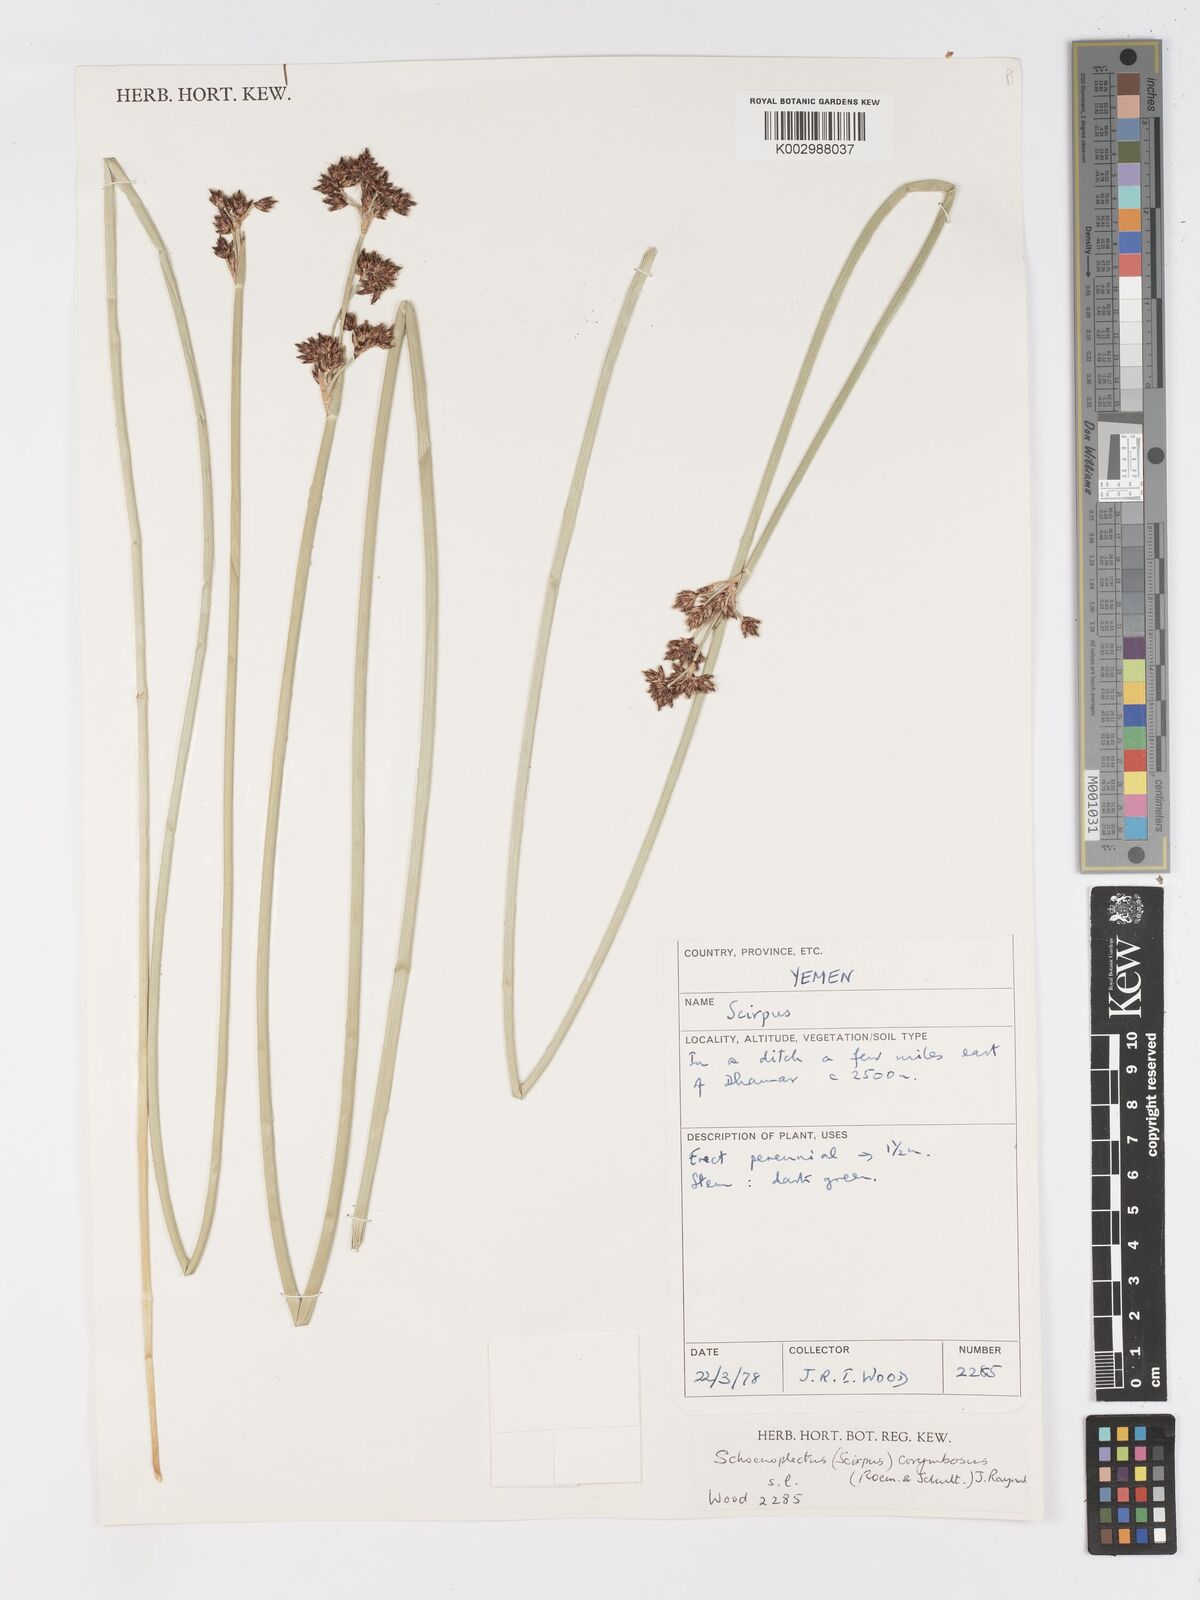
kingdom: Plantae
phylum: Tracheophyta
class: Liliopsida
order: Poales
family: Cyperaceae
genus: Schoenoplectiella
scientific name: Schoenoplectiella corymbosa
